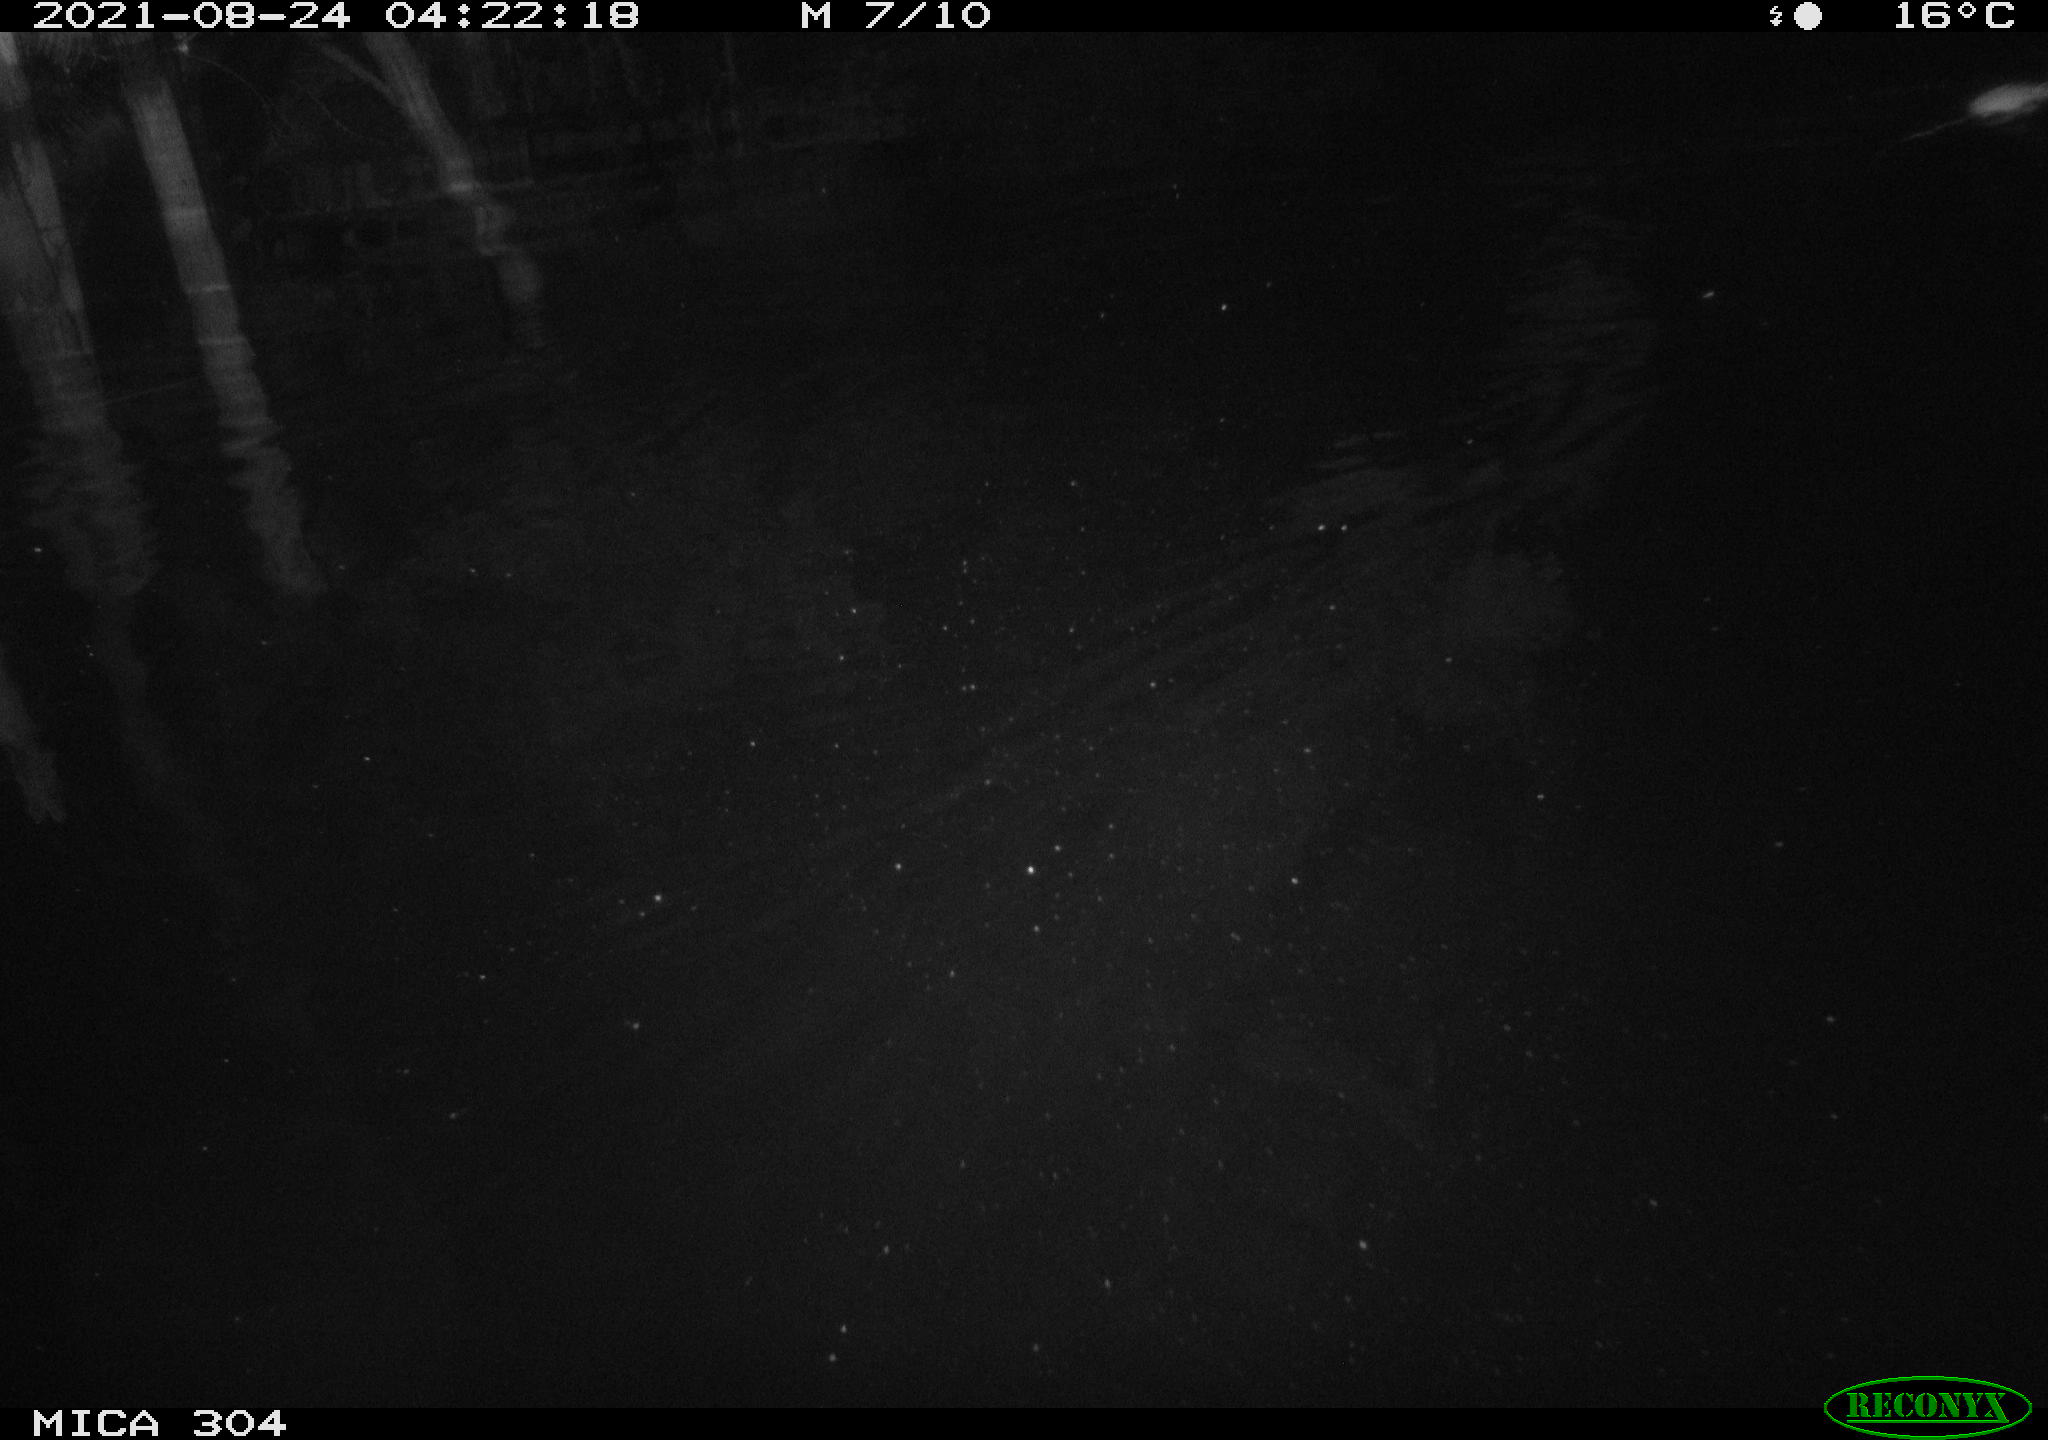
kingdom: Animalia
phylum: Chordata
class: Mammalia
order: Rodentia
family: Muridae
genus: Rattus
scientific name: Rattus norvegicus
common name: Brown rat
